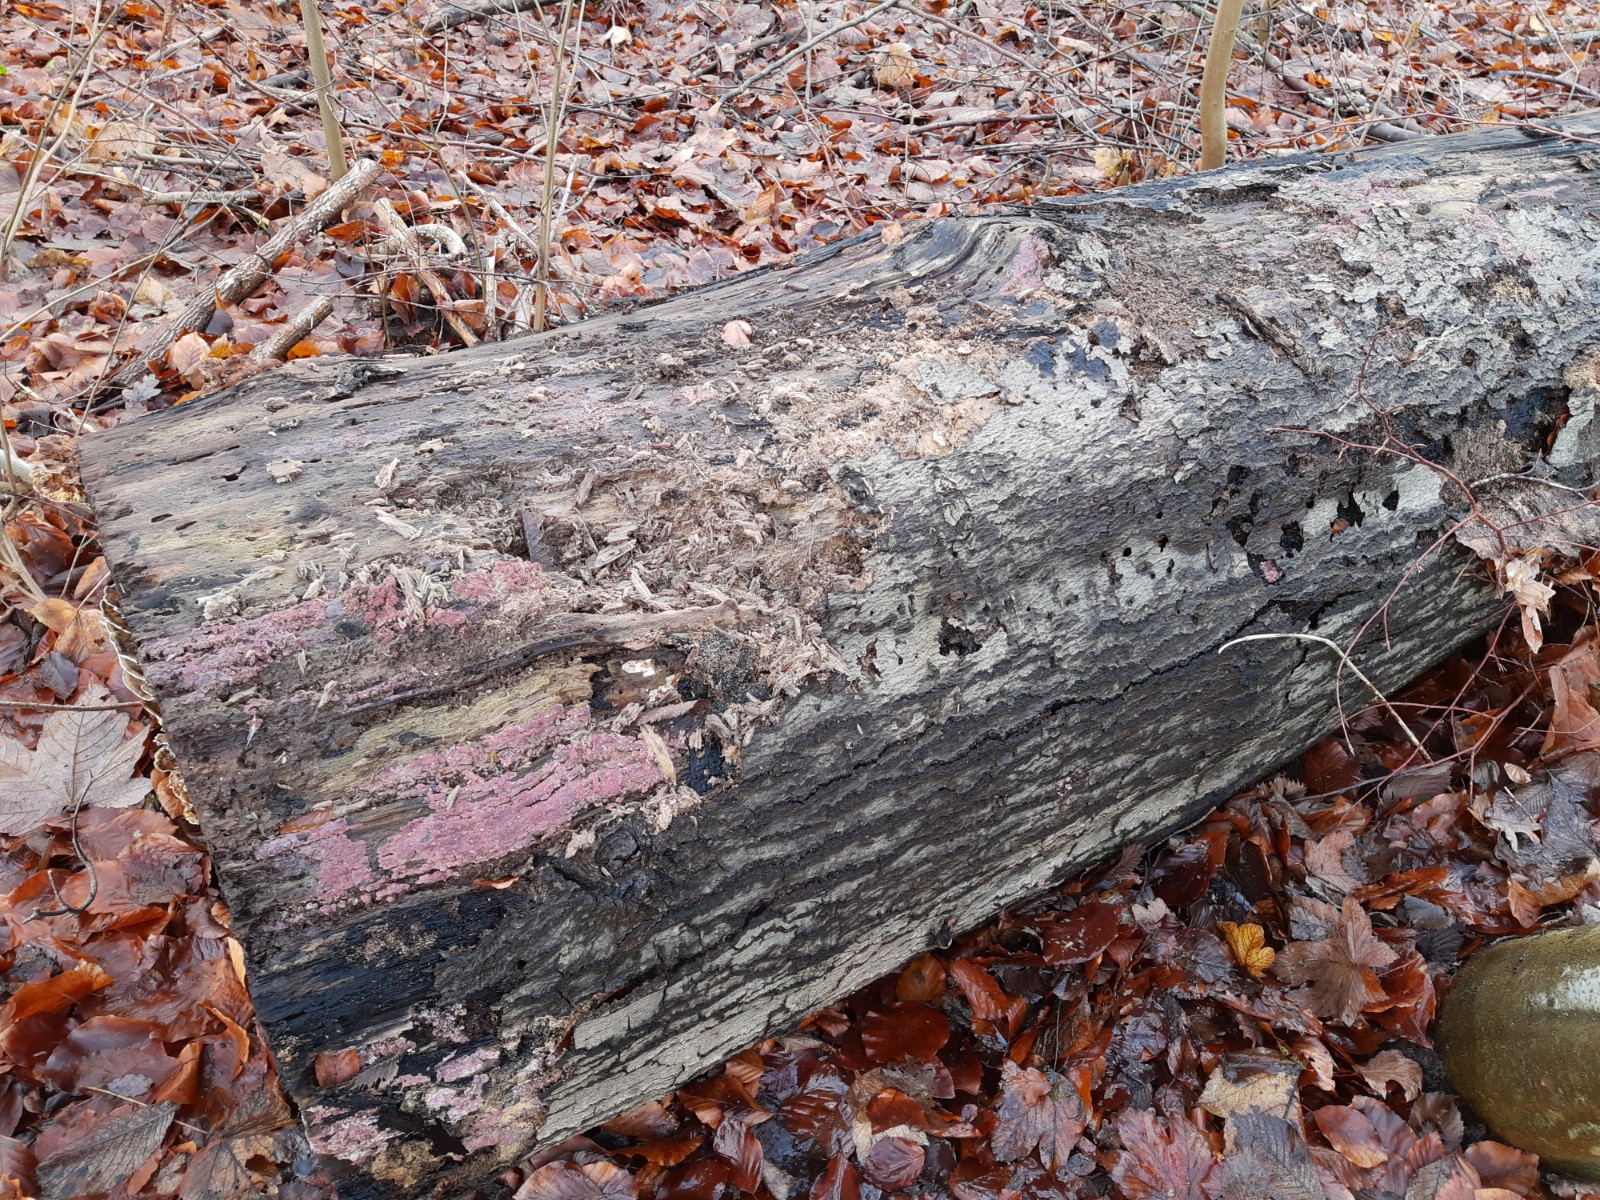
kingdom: Fungi
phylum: Basidiomycota
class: Agaricomycetes
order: Polyporales
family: Irpicaceae
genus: Ceriporia
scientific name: Ceriporia excelsa
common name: lilla voksporesvamp
